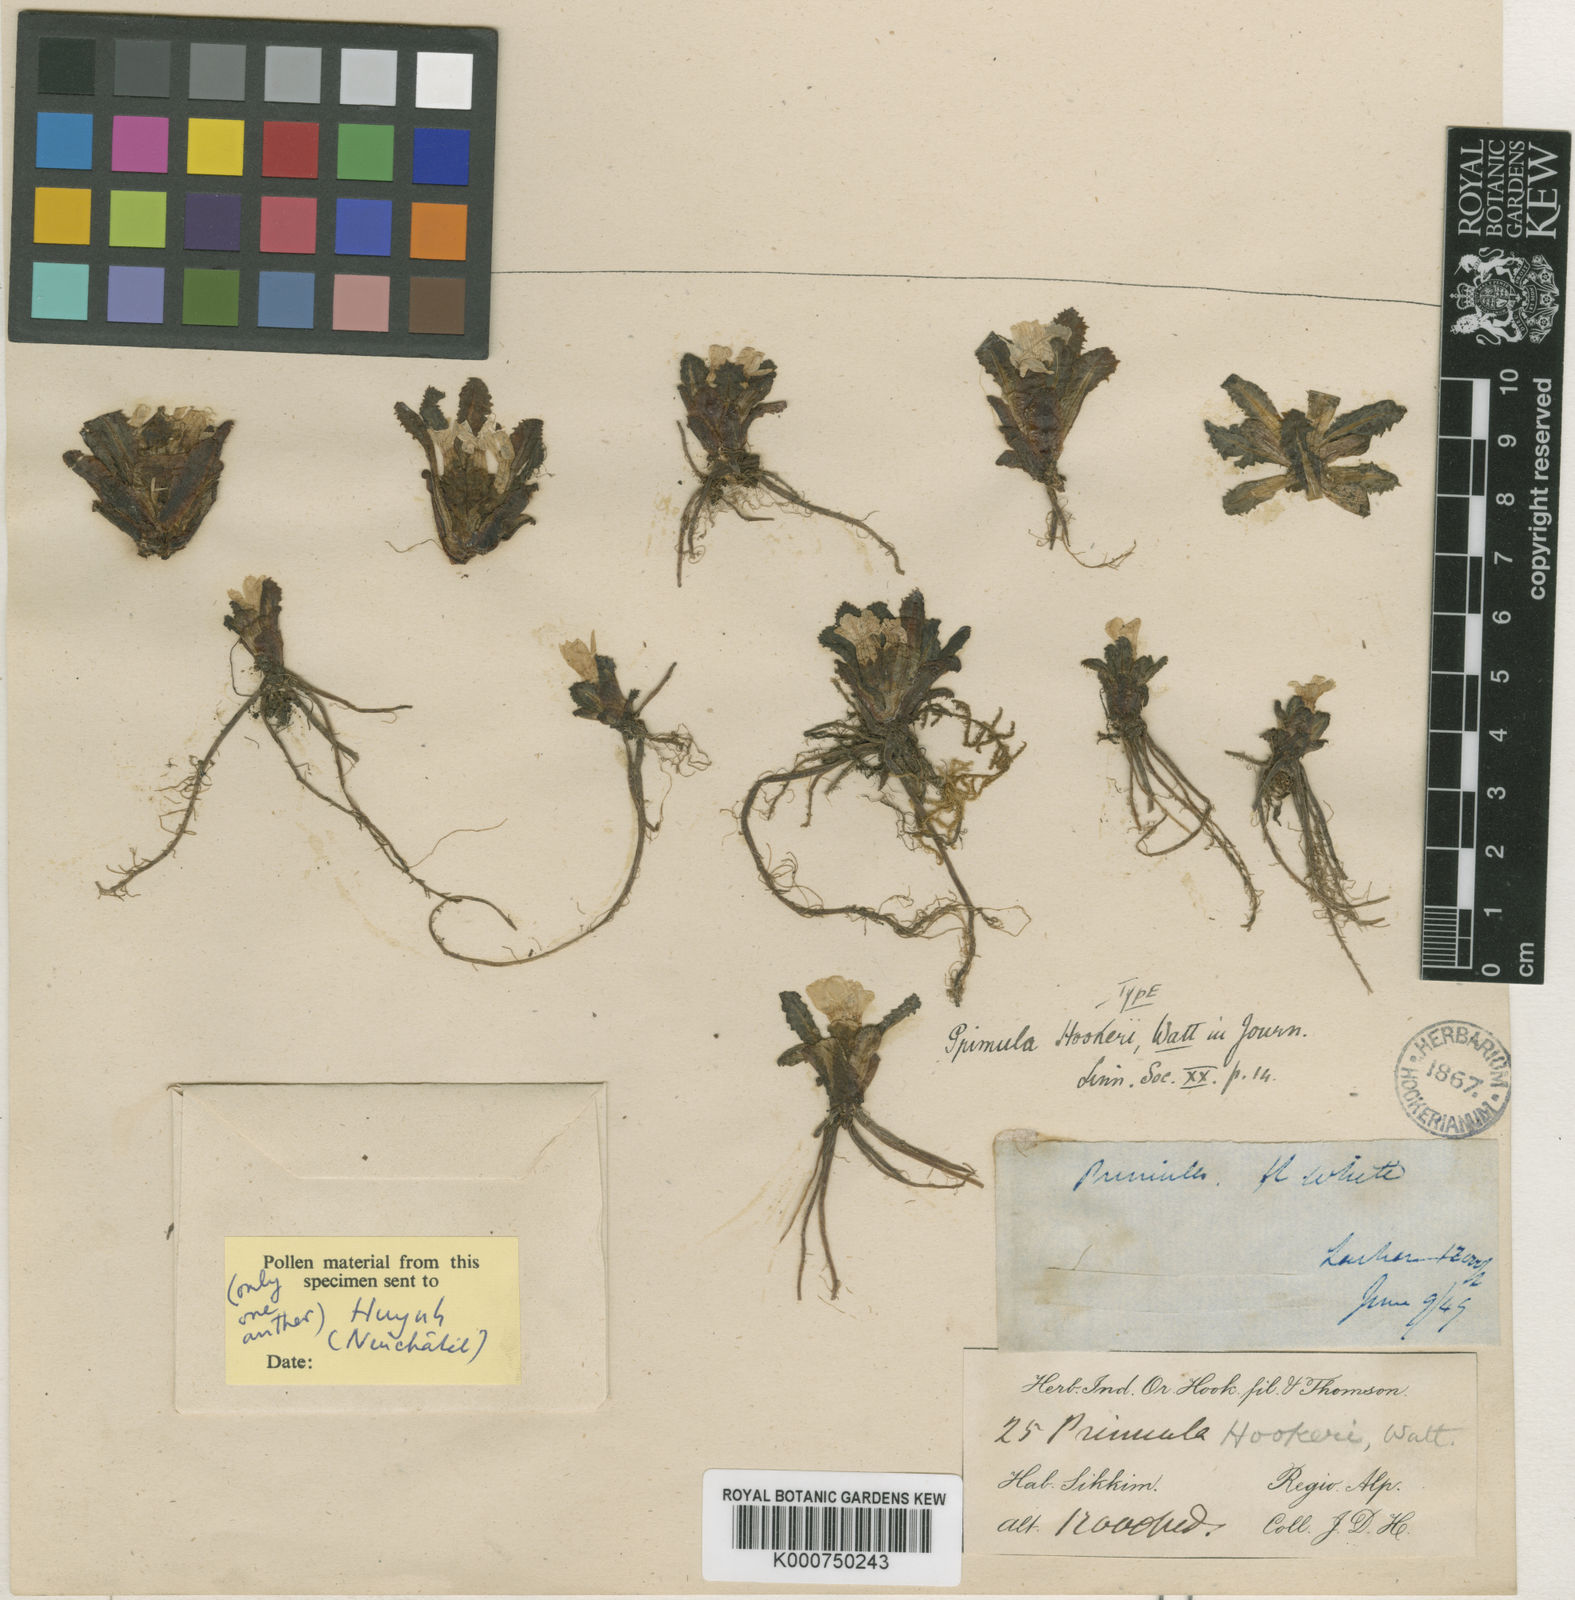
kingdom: Plantae
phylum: Tracheophyta
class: Magnoliopsida
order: Ericales
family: Primulaceae
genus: Primula
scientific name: Primula hookeri
